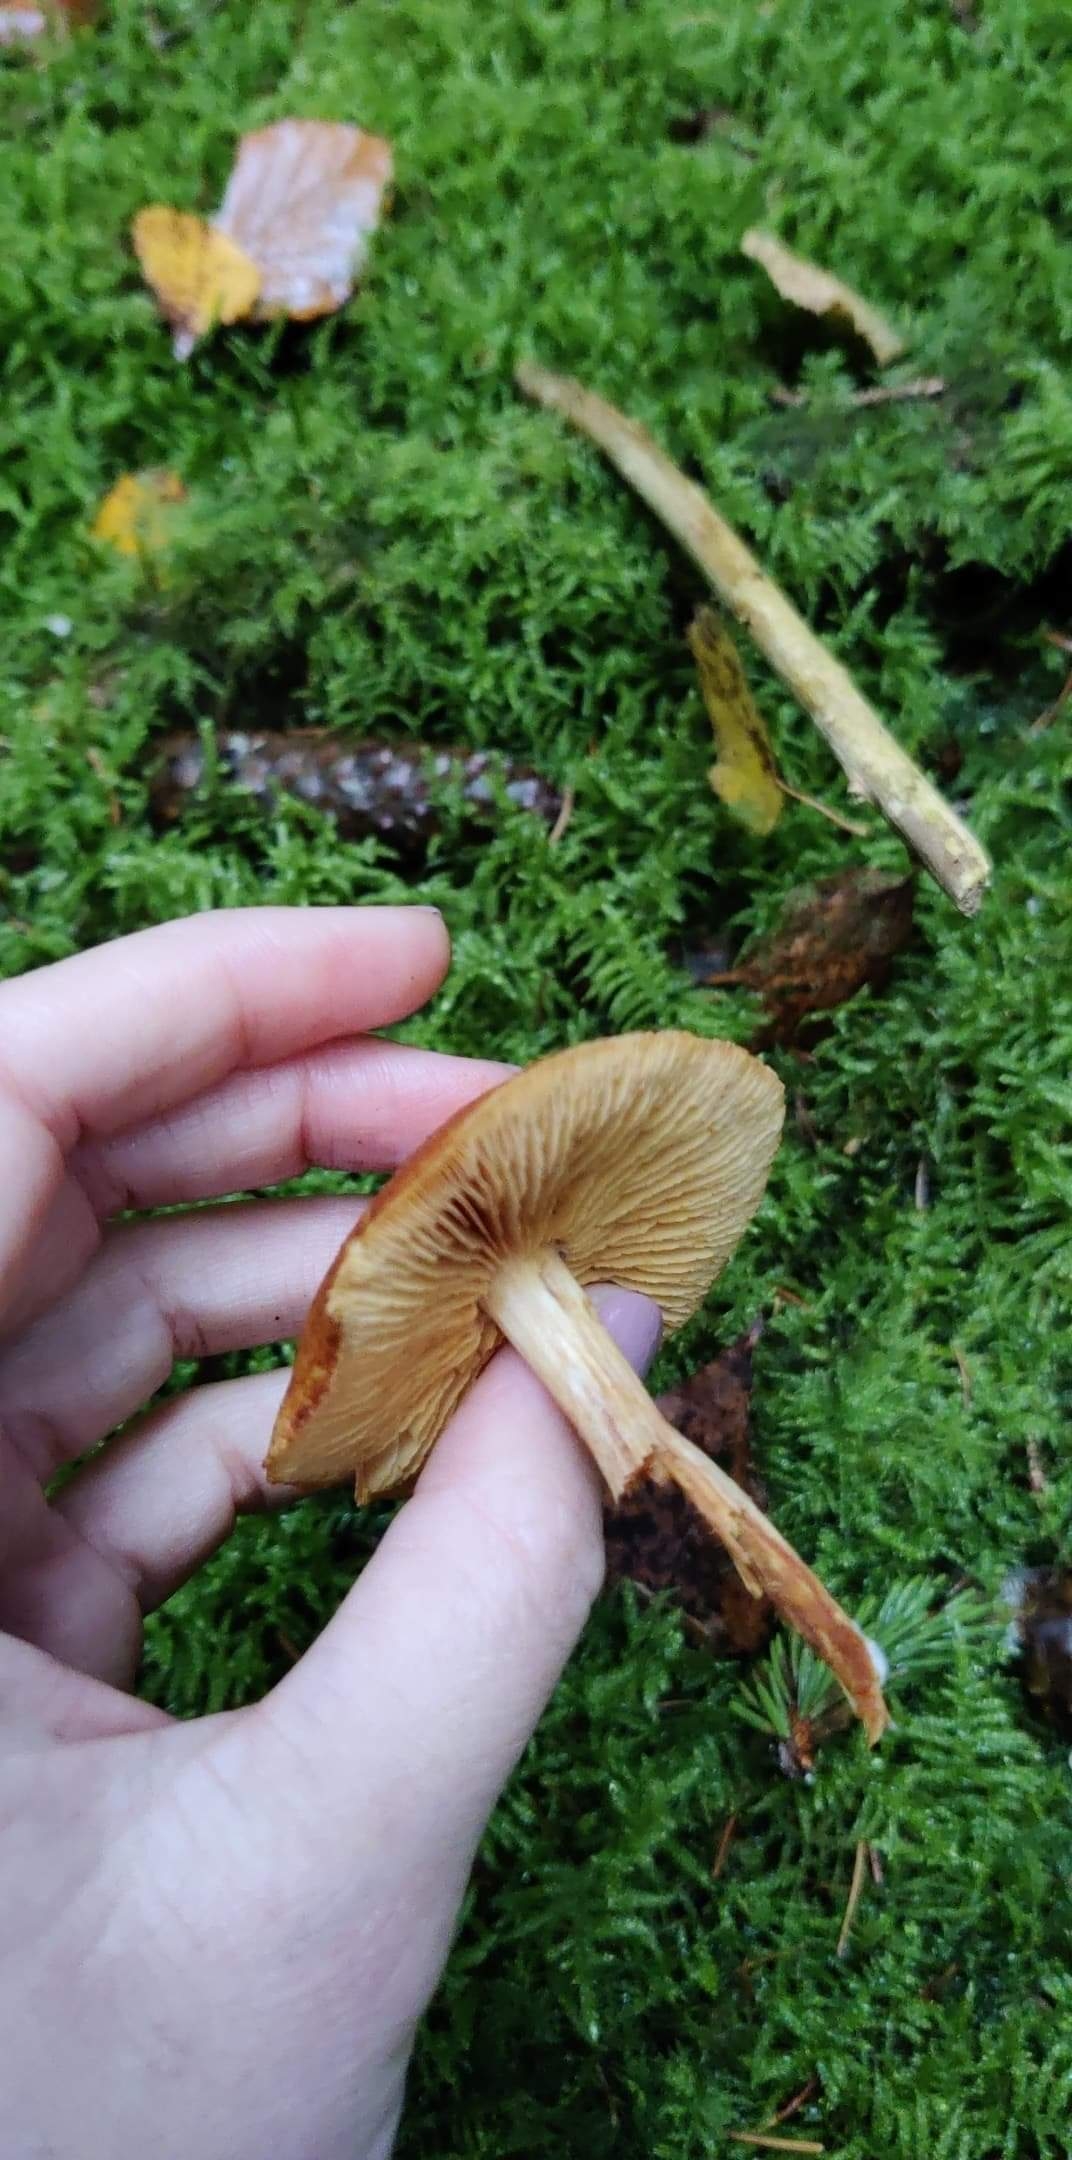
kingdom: Fungi
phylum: Basidiomycota
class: Agaricomycetes
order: Agaricales
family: Hymenogastraceae
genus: Gymnopilus
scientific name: Gymnopilus penetrans
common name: plettet flammehat
